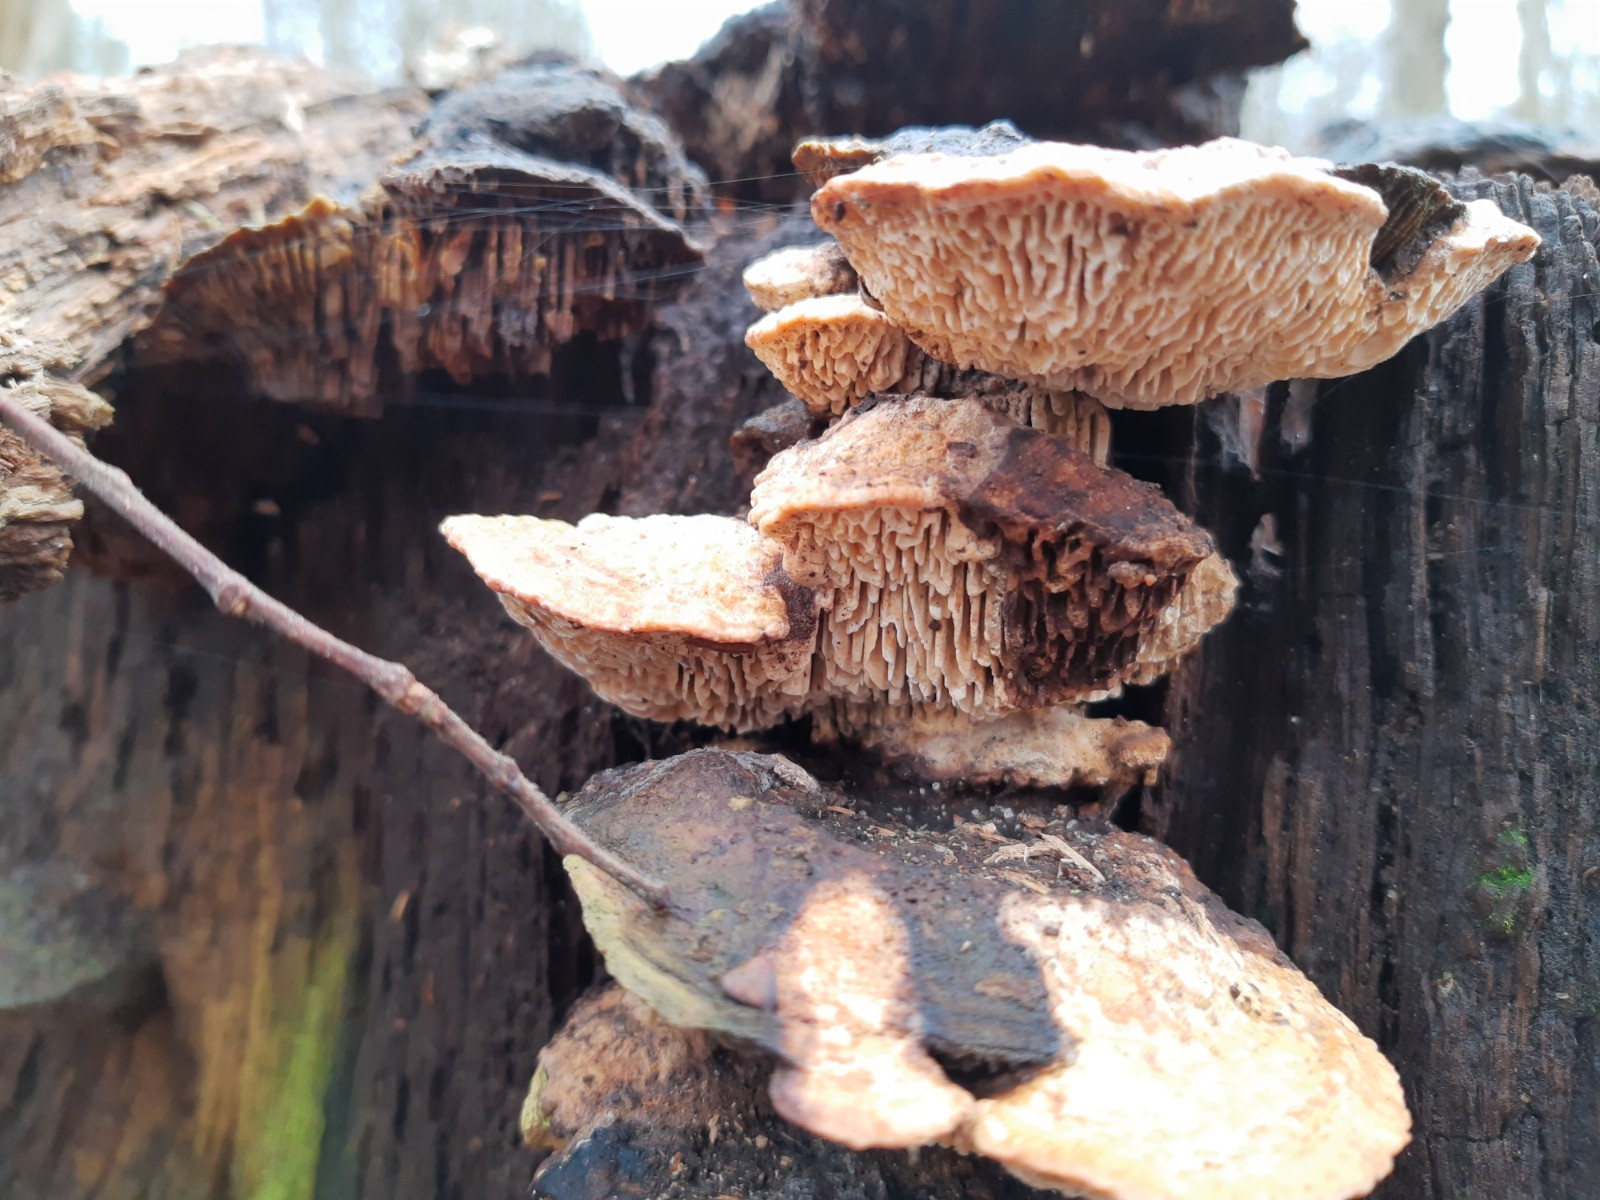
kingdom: Fungi
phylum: Basidiomycota
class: Agaricomycetes
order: Polyporales
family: Fomitopsidaceae
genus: Daedalea
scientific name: Daedalea quercina
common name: ege-labyrintsvamp
